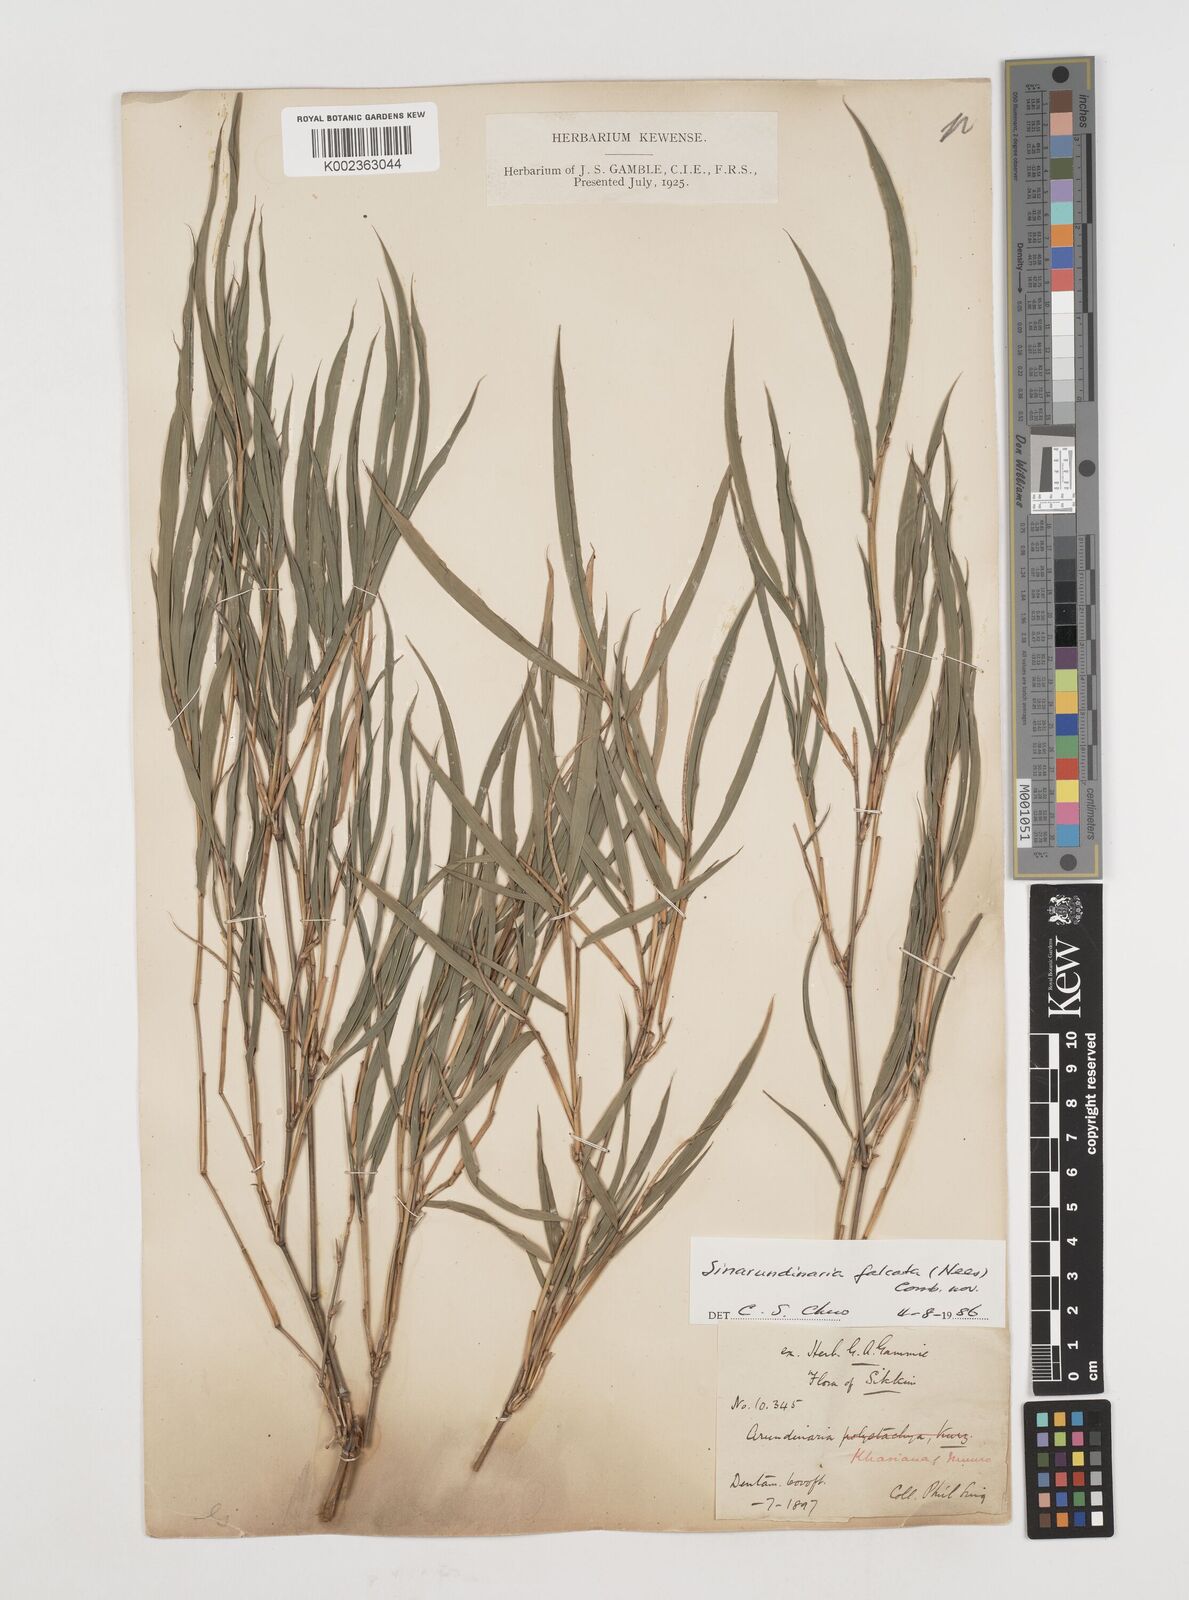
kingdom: Plantae
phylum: Tracheophyta
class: Liliopsida
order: Poales
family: Poaceae
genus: Drepanostachyum
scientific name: Drepanostachyum khasianum
